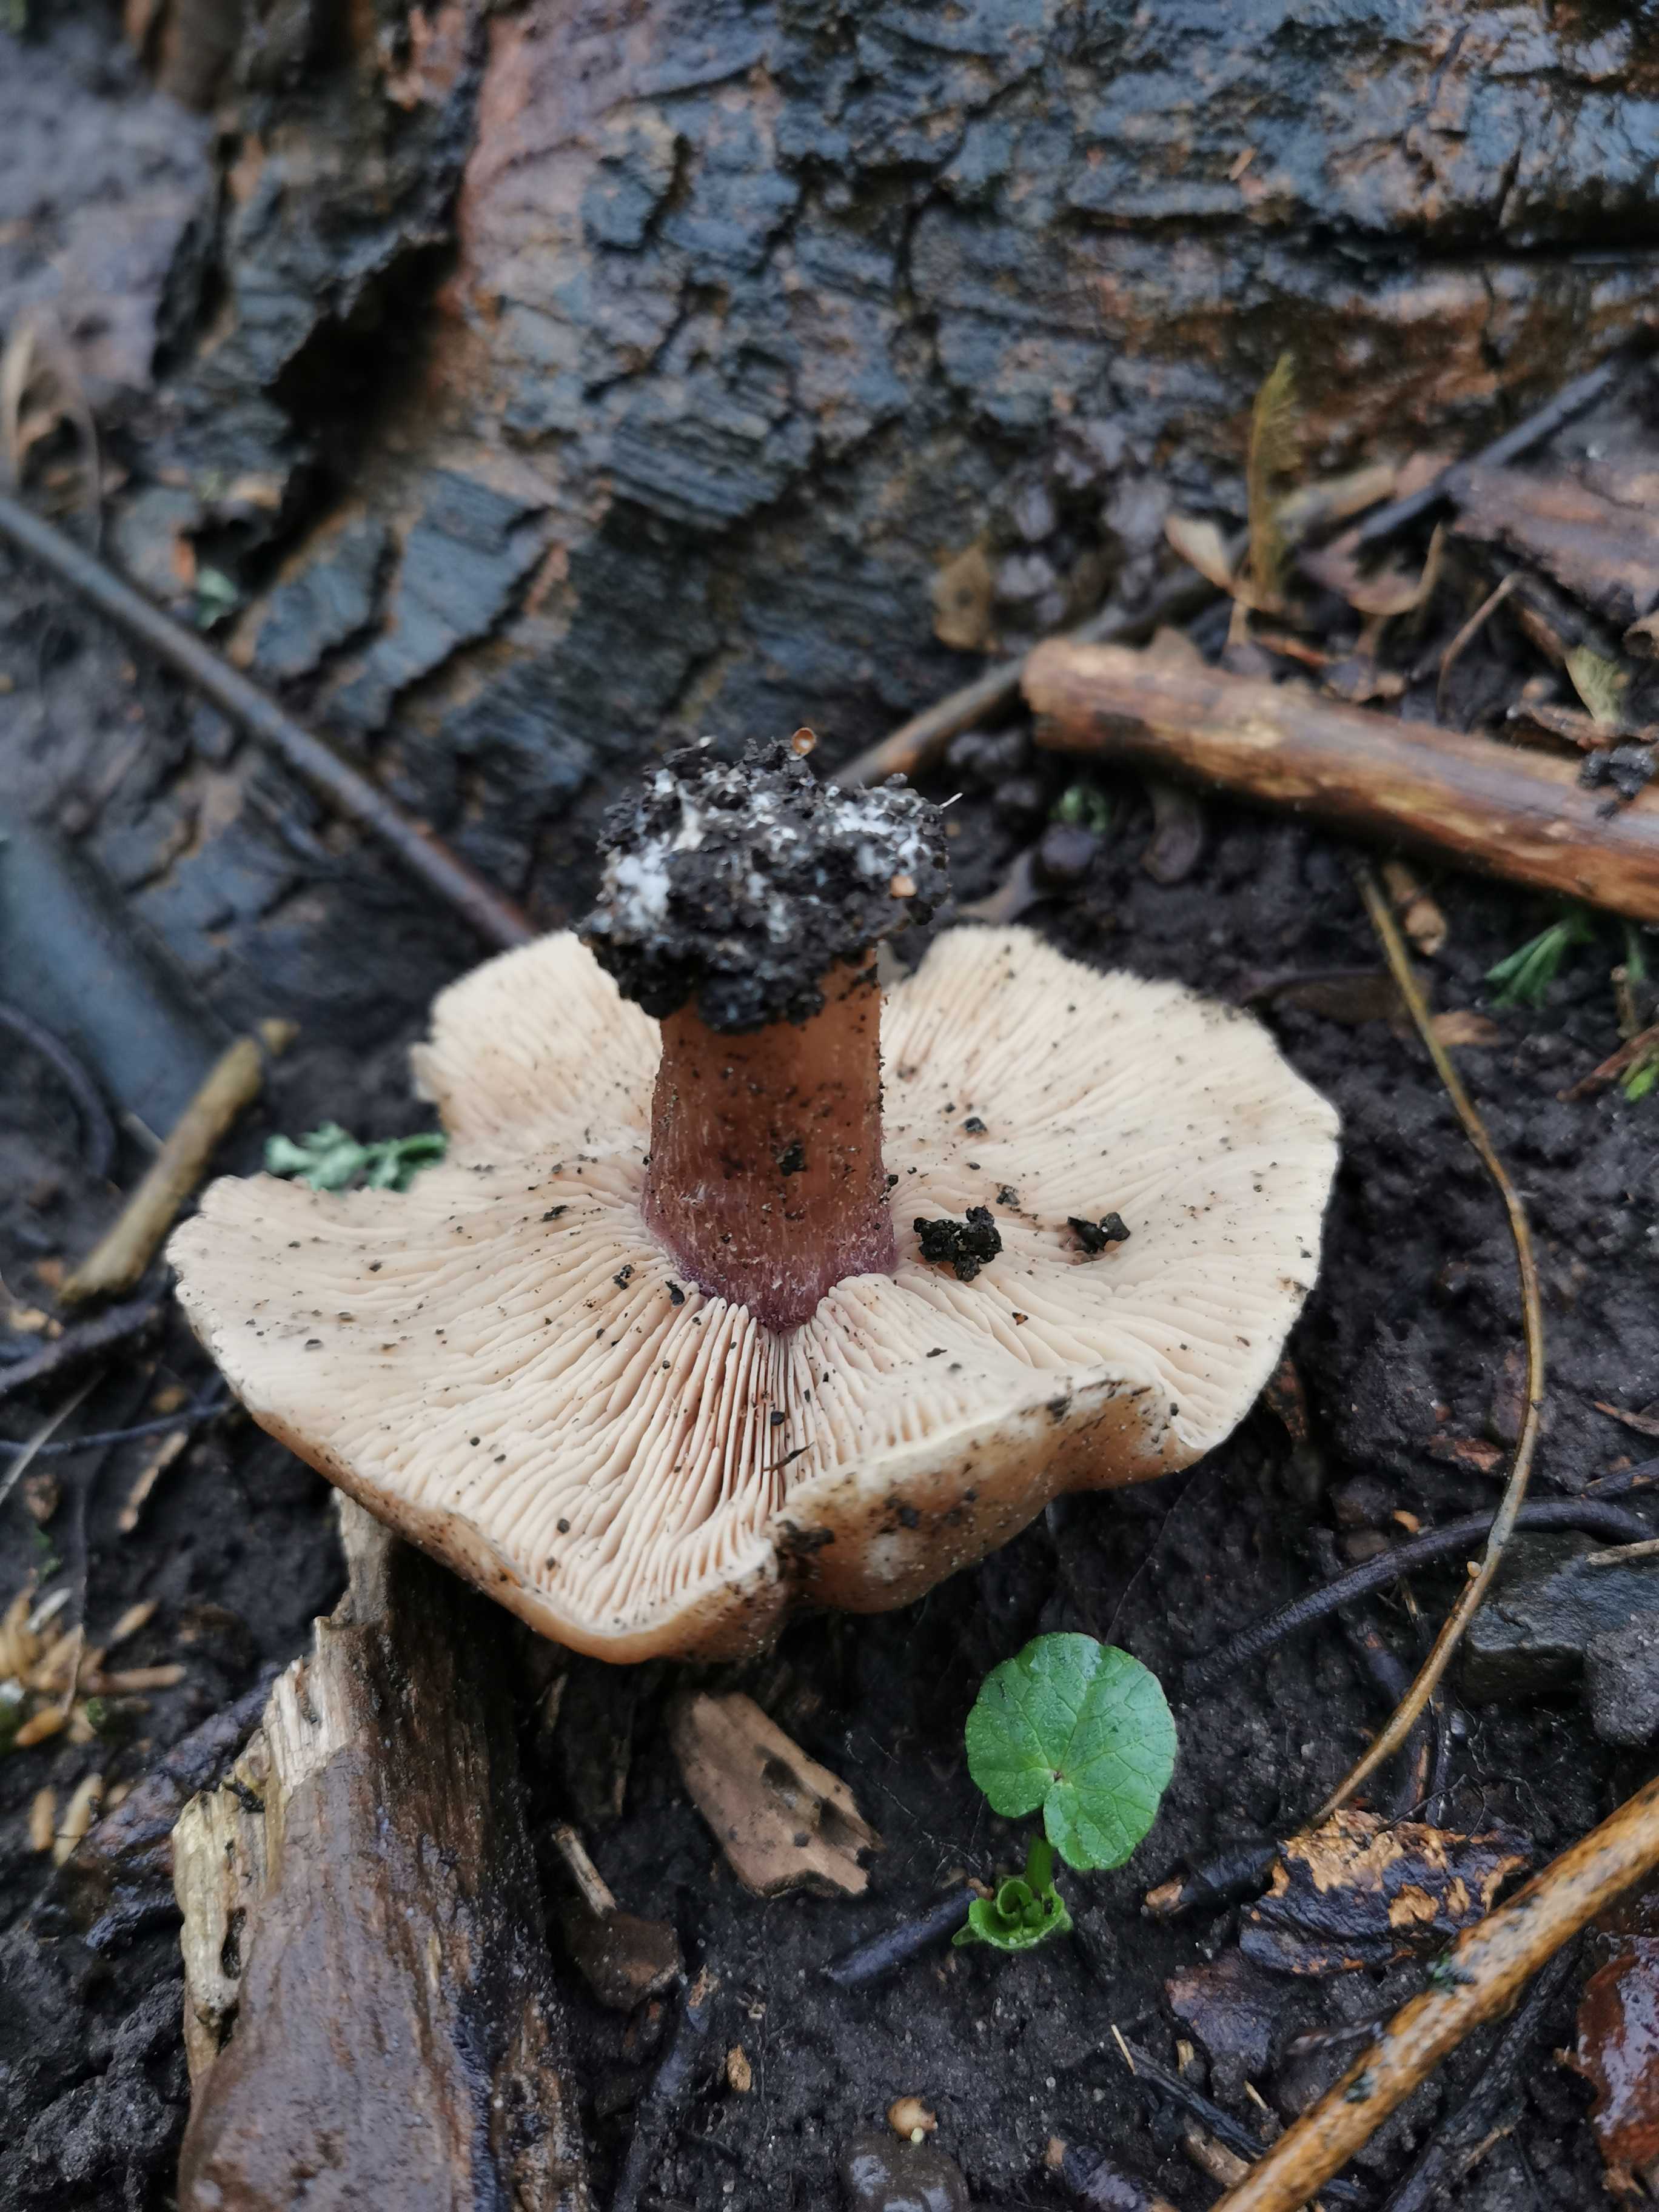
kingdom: Fungi
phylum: Basidiomycota
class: Agaricomycetes
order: Agaricales
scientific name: Agaricales
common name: champignonordenen
